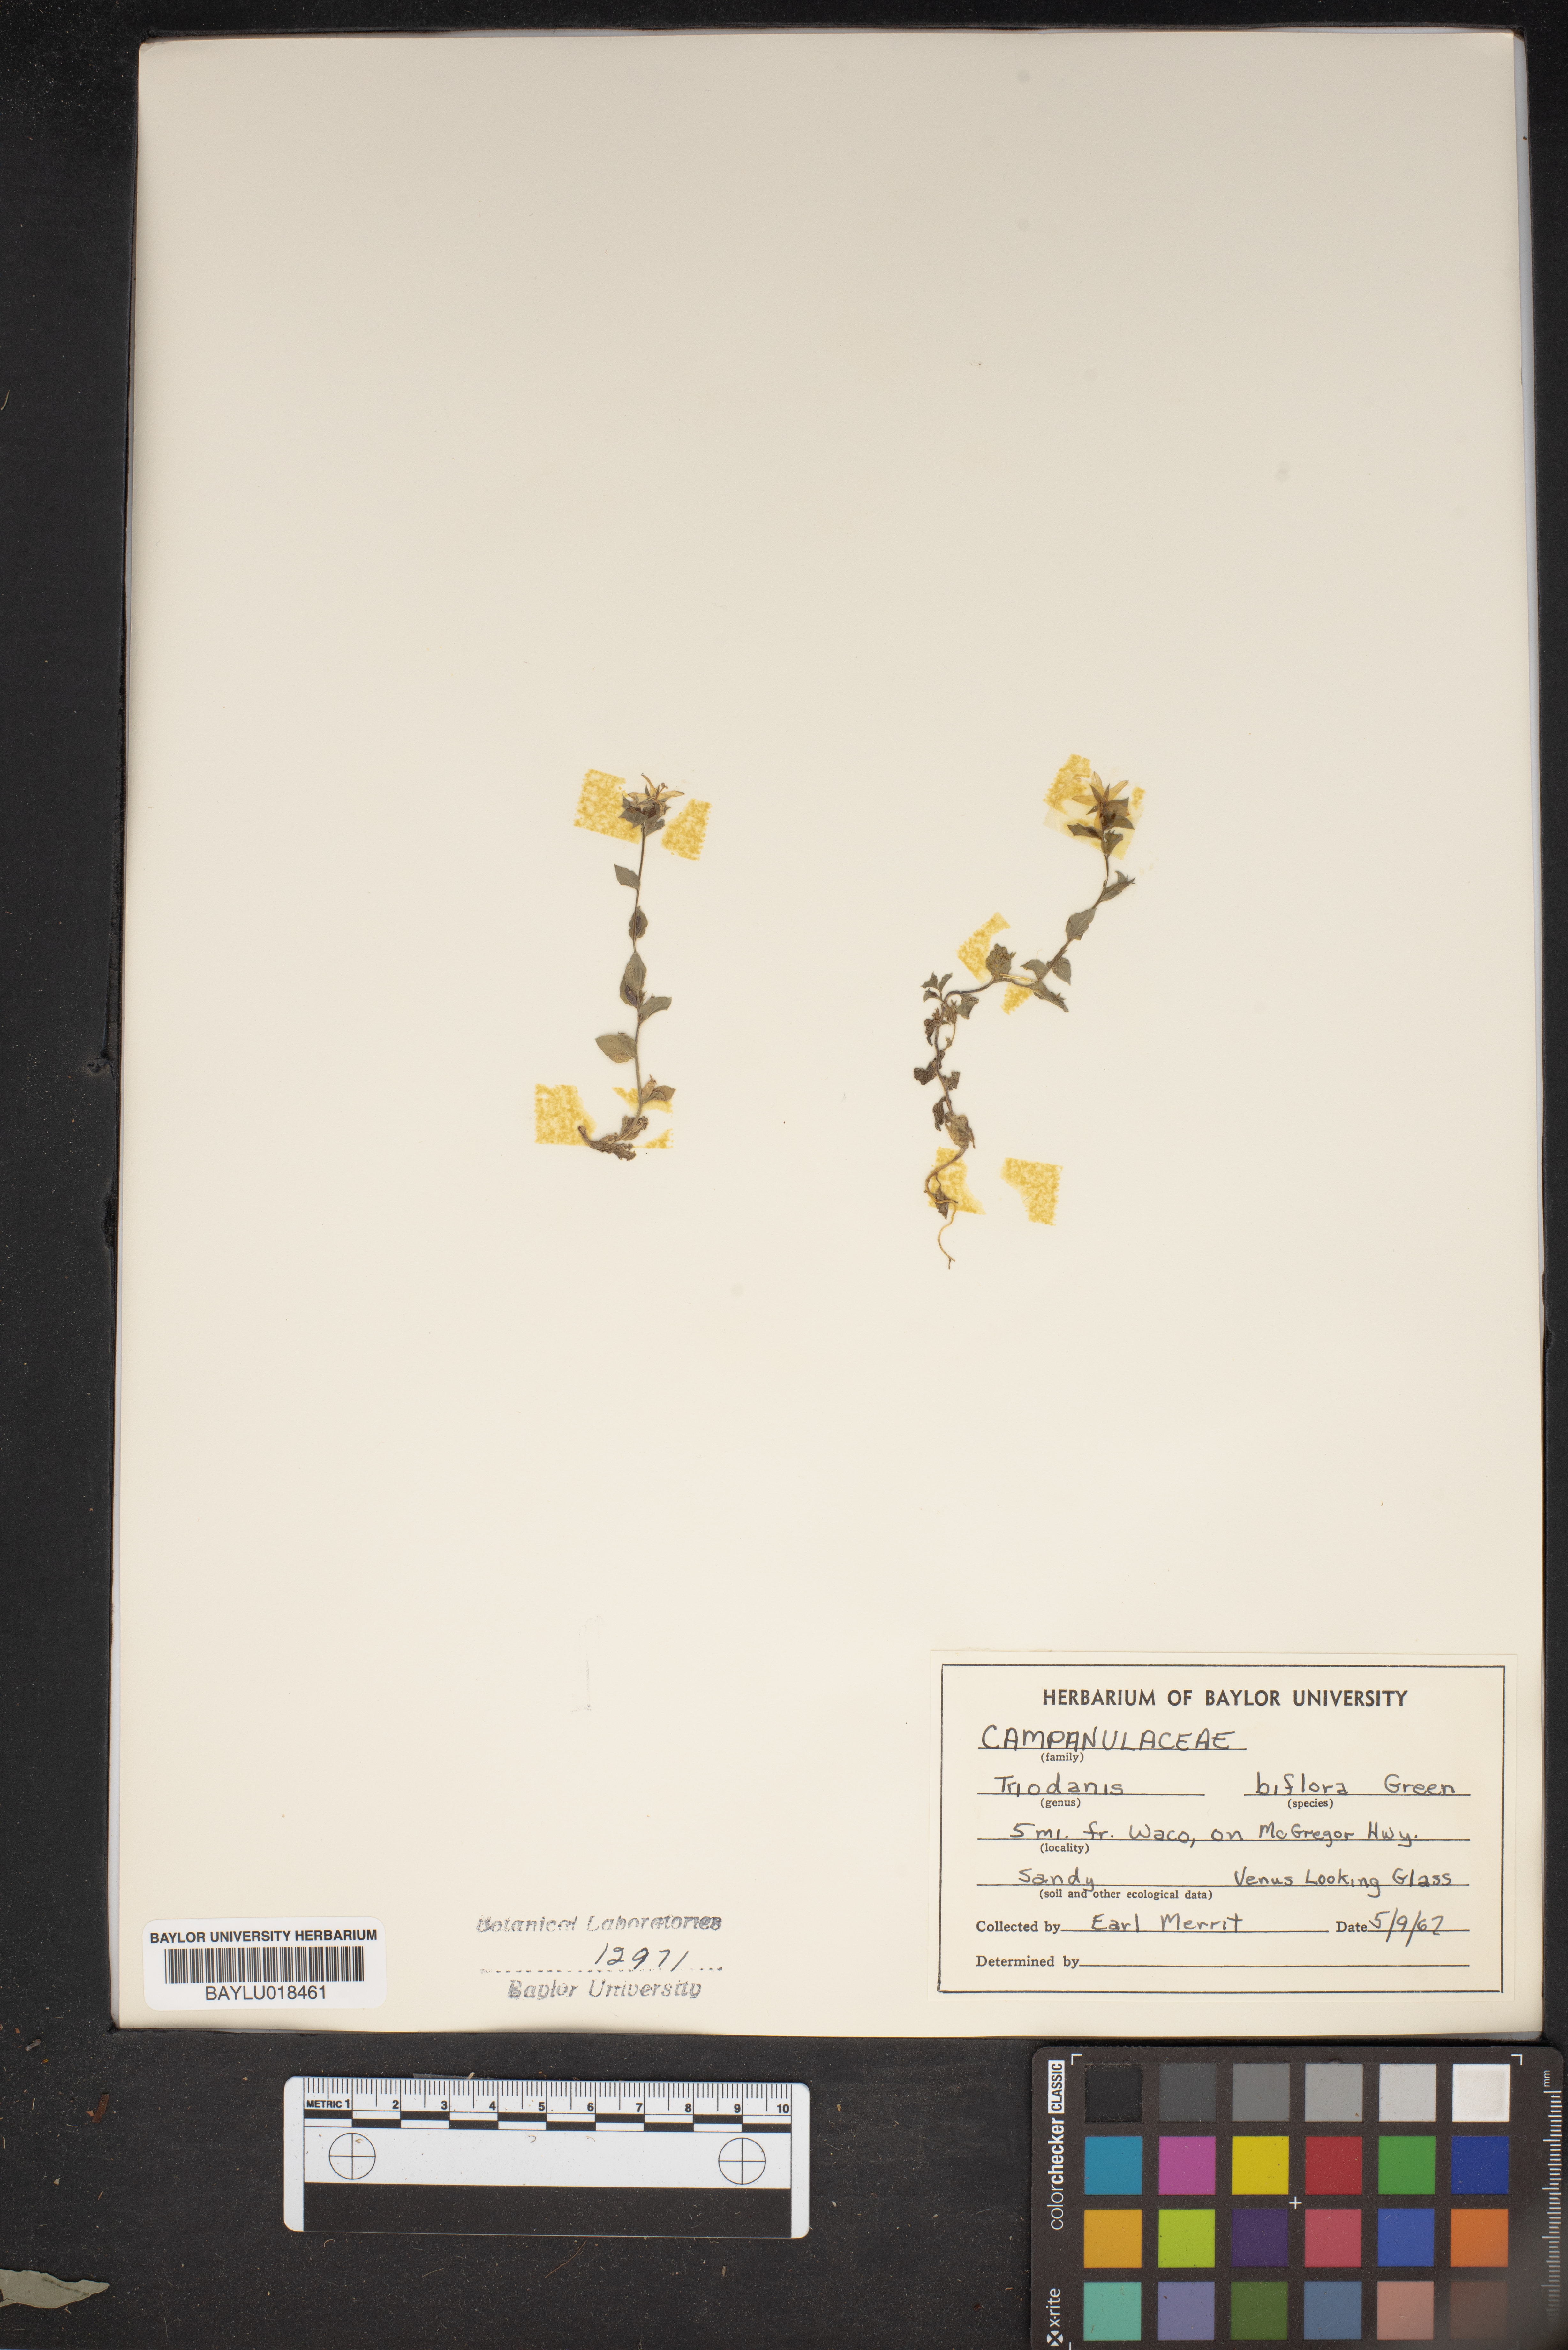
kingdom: Plantae
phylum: Tracheophyta
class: Magnoliopsida
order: Asterales
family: Campanulaceae
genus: Triodanis
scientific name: Triodanis perfoliata
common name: Clasping venus' looking-glass
